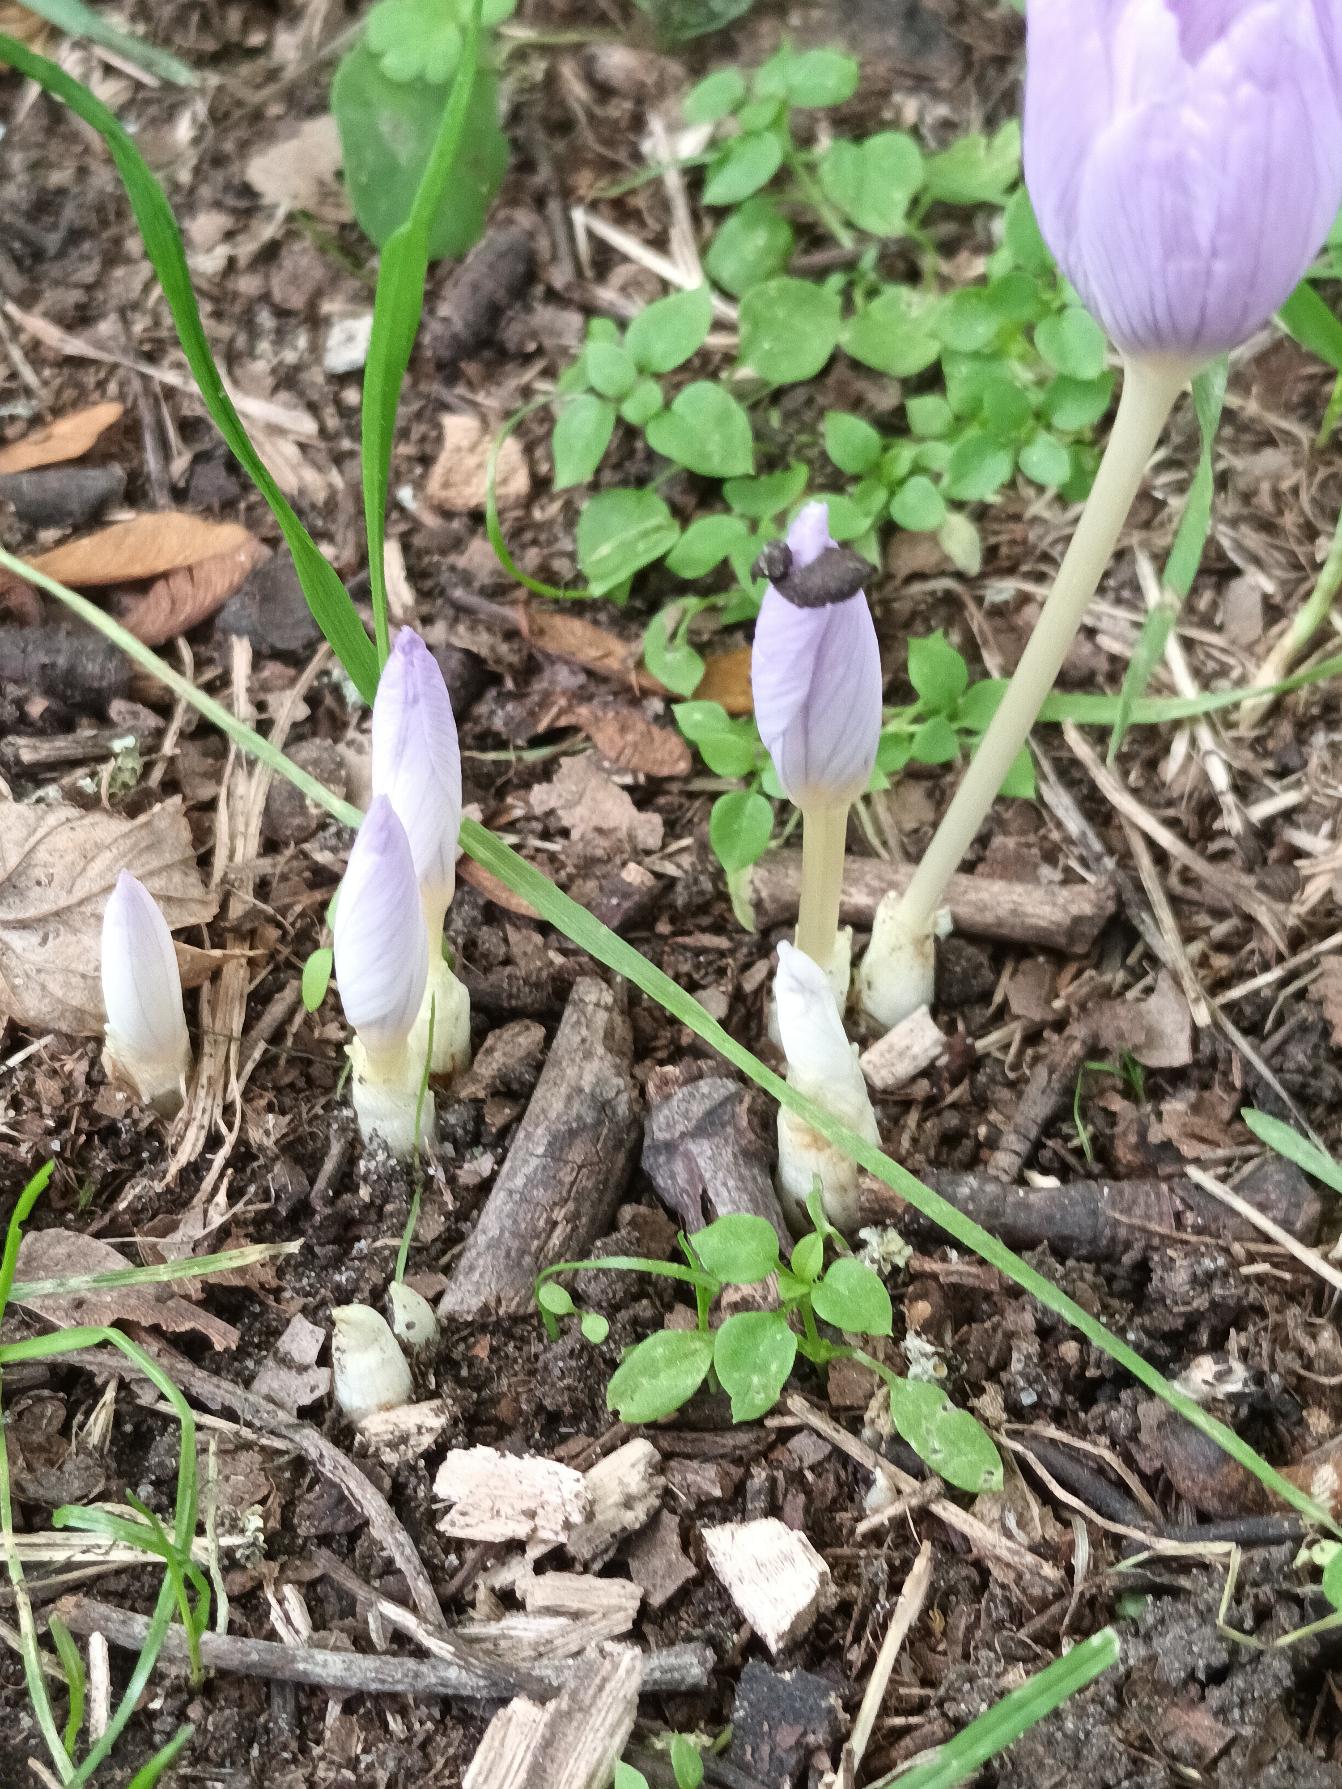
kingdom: Plantae
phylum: Tracheophyta
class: Liliopsida
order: Asparagales
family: Iridaceae
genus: Crocus
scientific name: Crocus kotschyanus
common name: Høst-krokus
